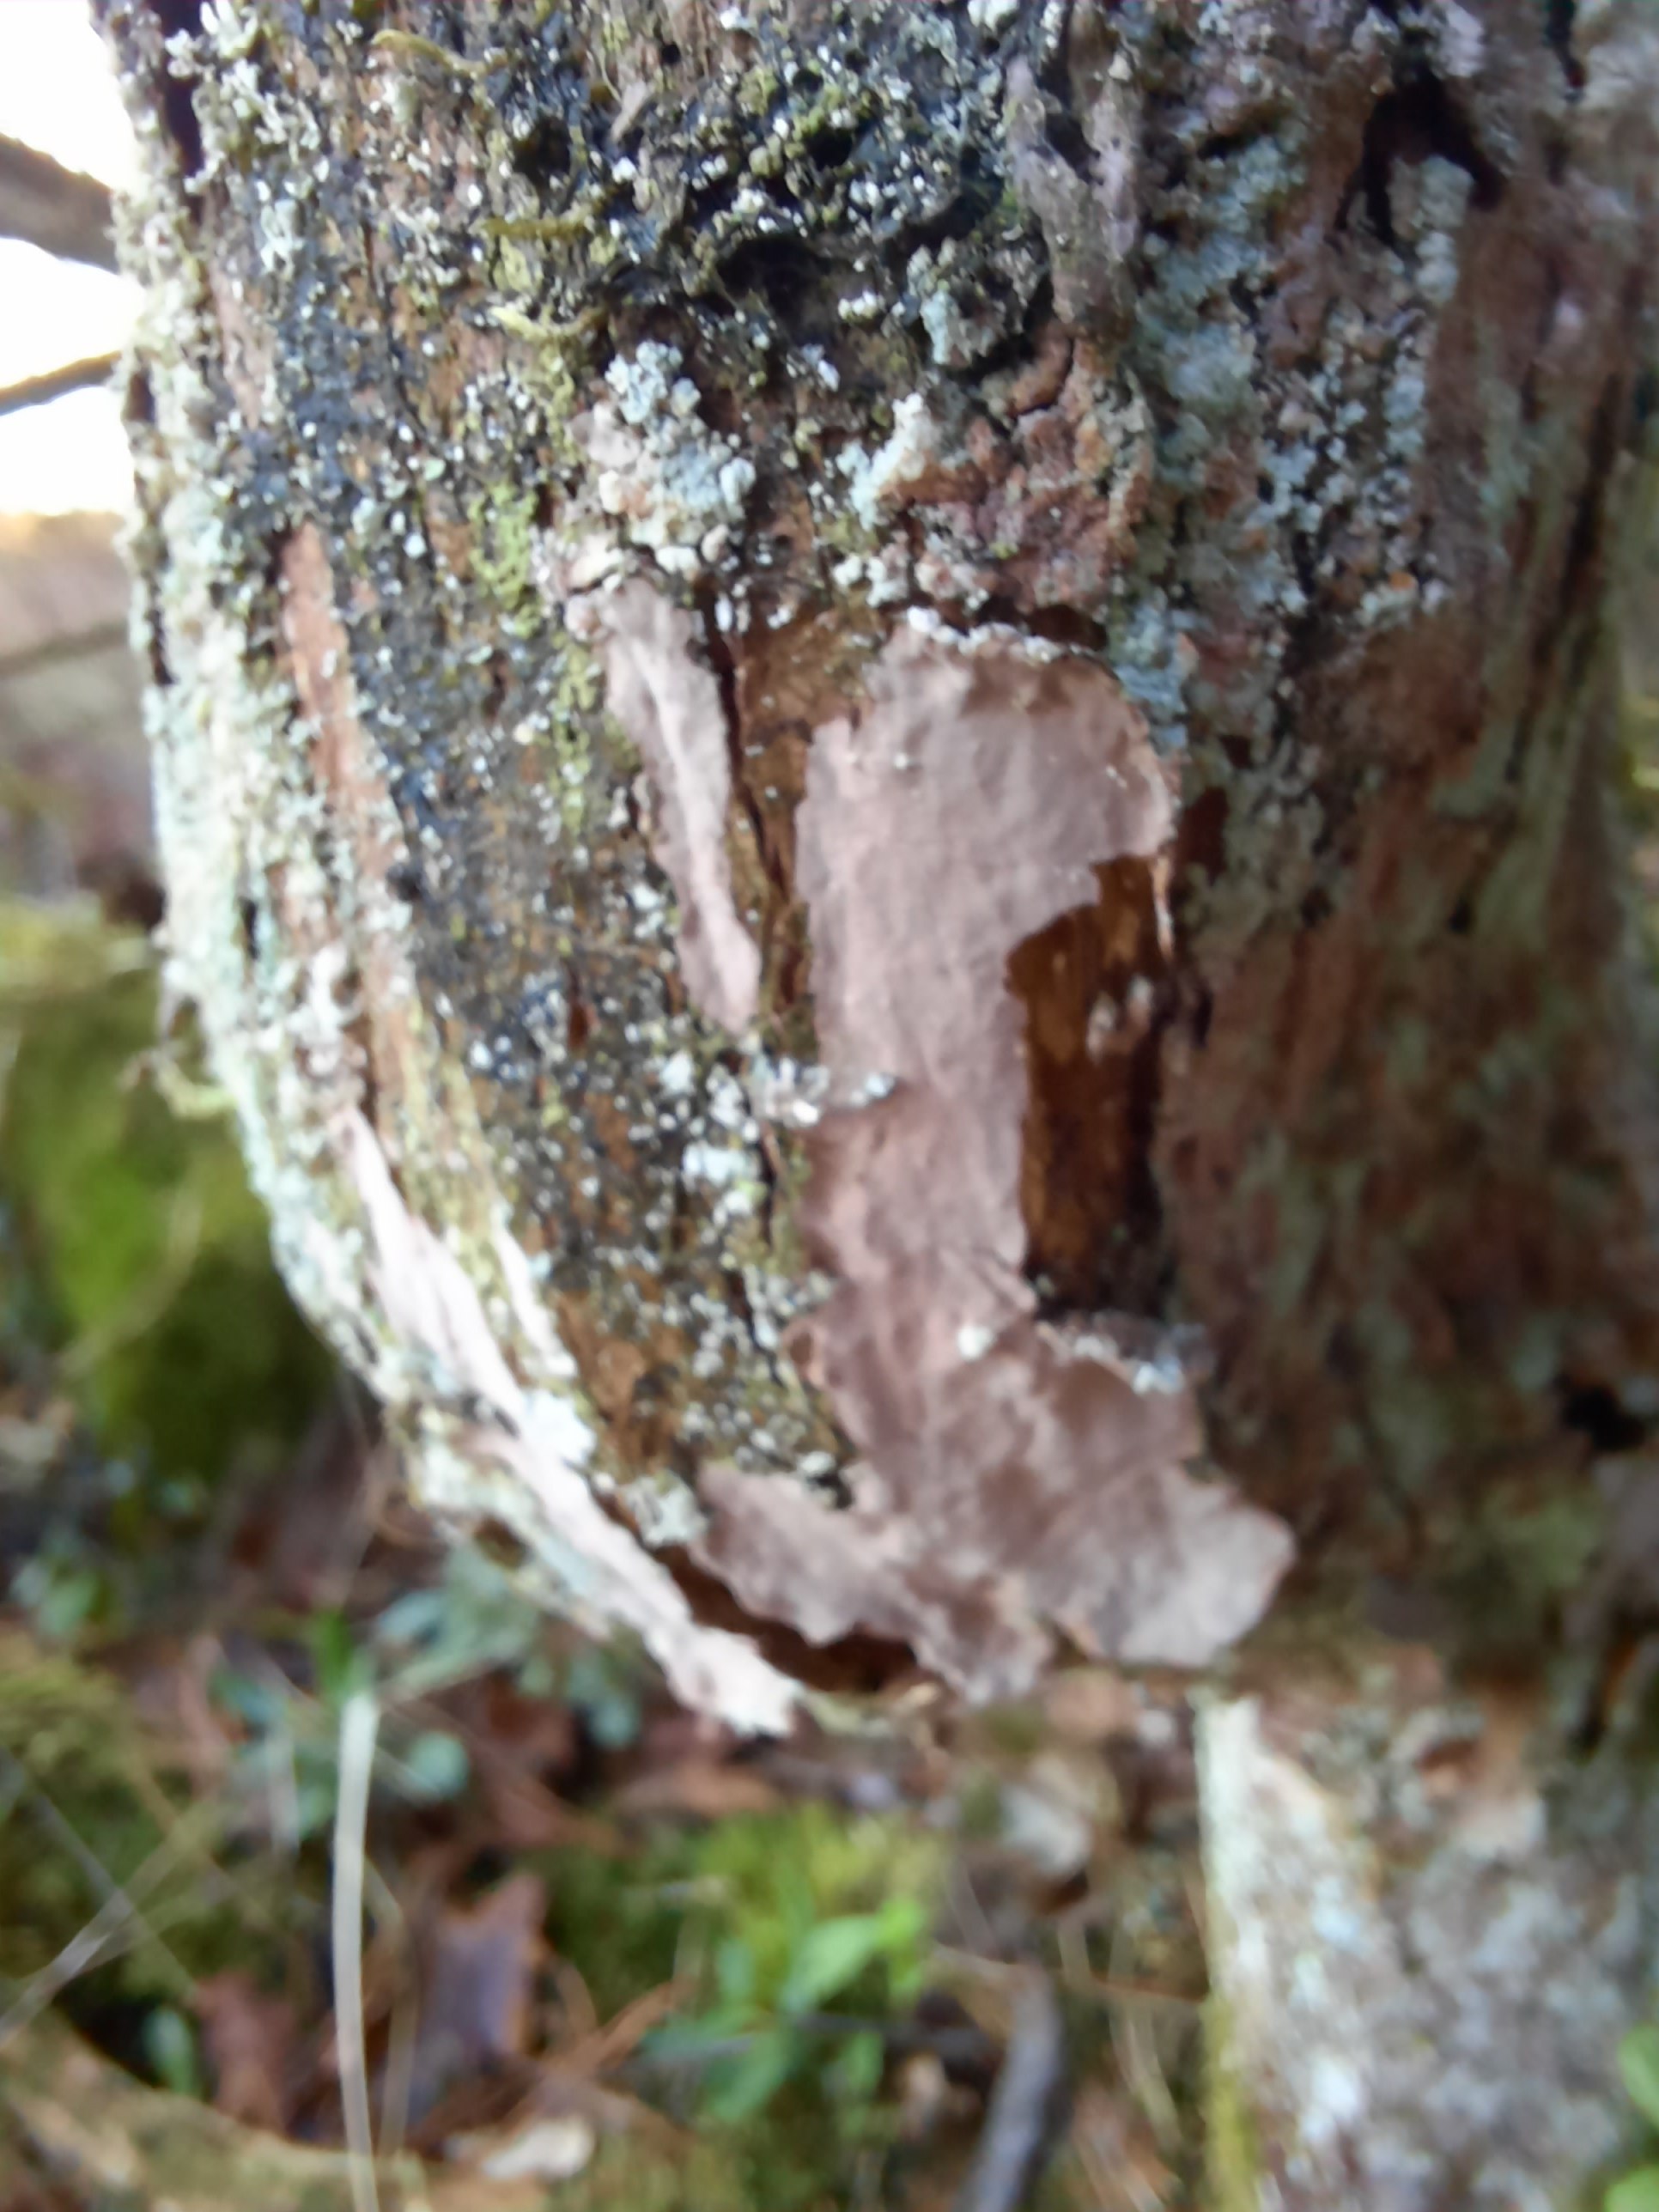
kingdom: Fungi
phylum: Basidiomycota
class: Agaricomycetes
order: Russulales
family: Echinodontiaceae
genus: Amylostereum
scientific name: Amylostereum laevigatum
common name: ene-lædersvamp
